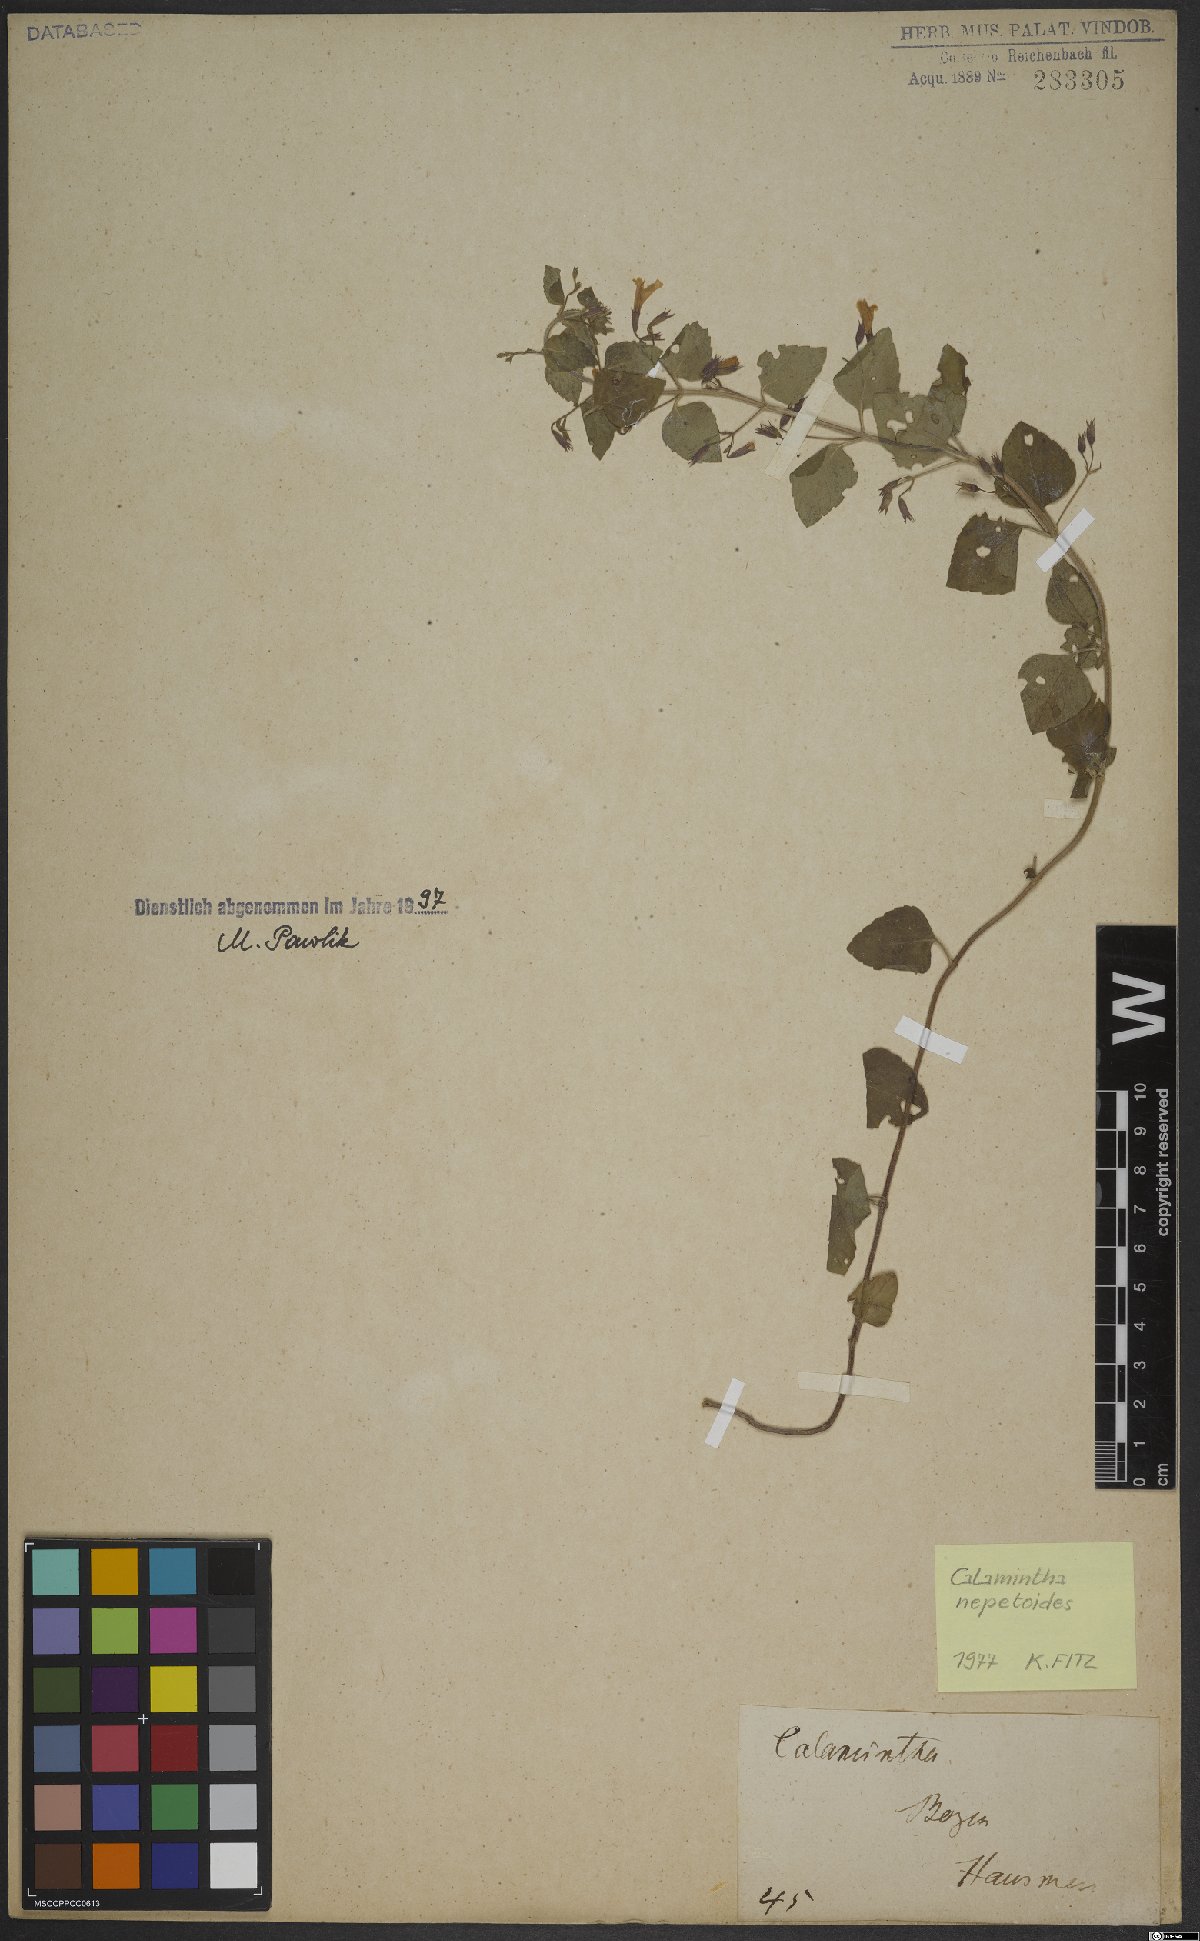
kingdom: Plantae
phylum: Tracheophyta
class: Magnoliopsida
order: Lamiales
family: Lamiaceae
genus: Clinopodium
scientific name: Clinopodium nepeta
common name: Lesser calamint
